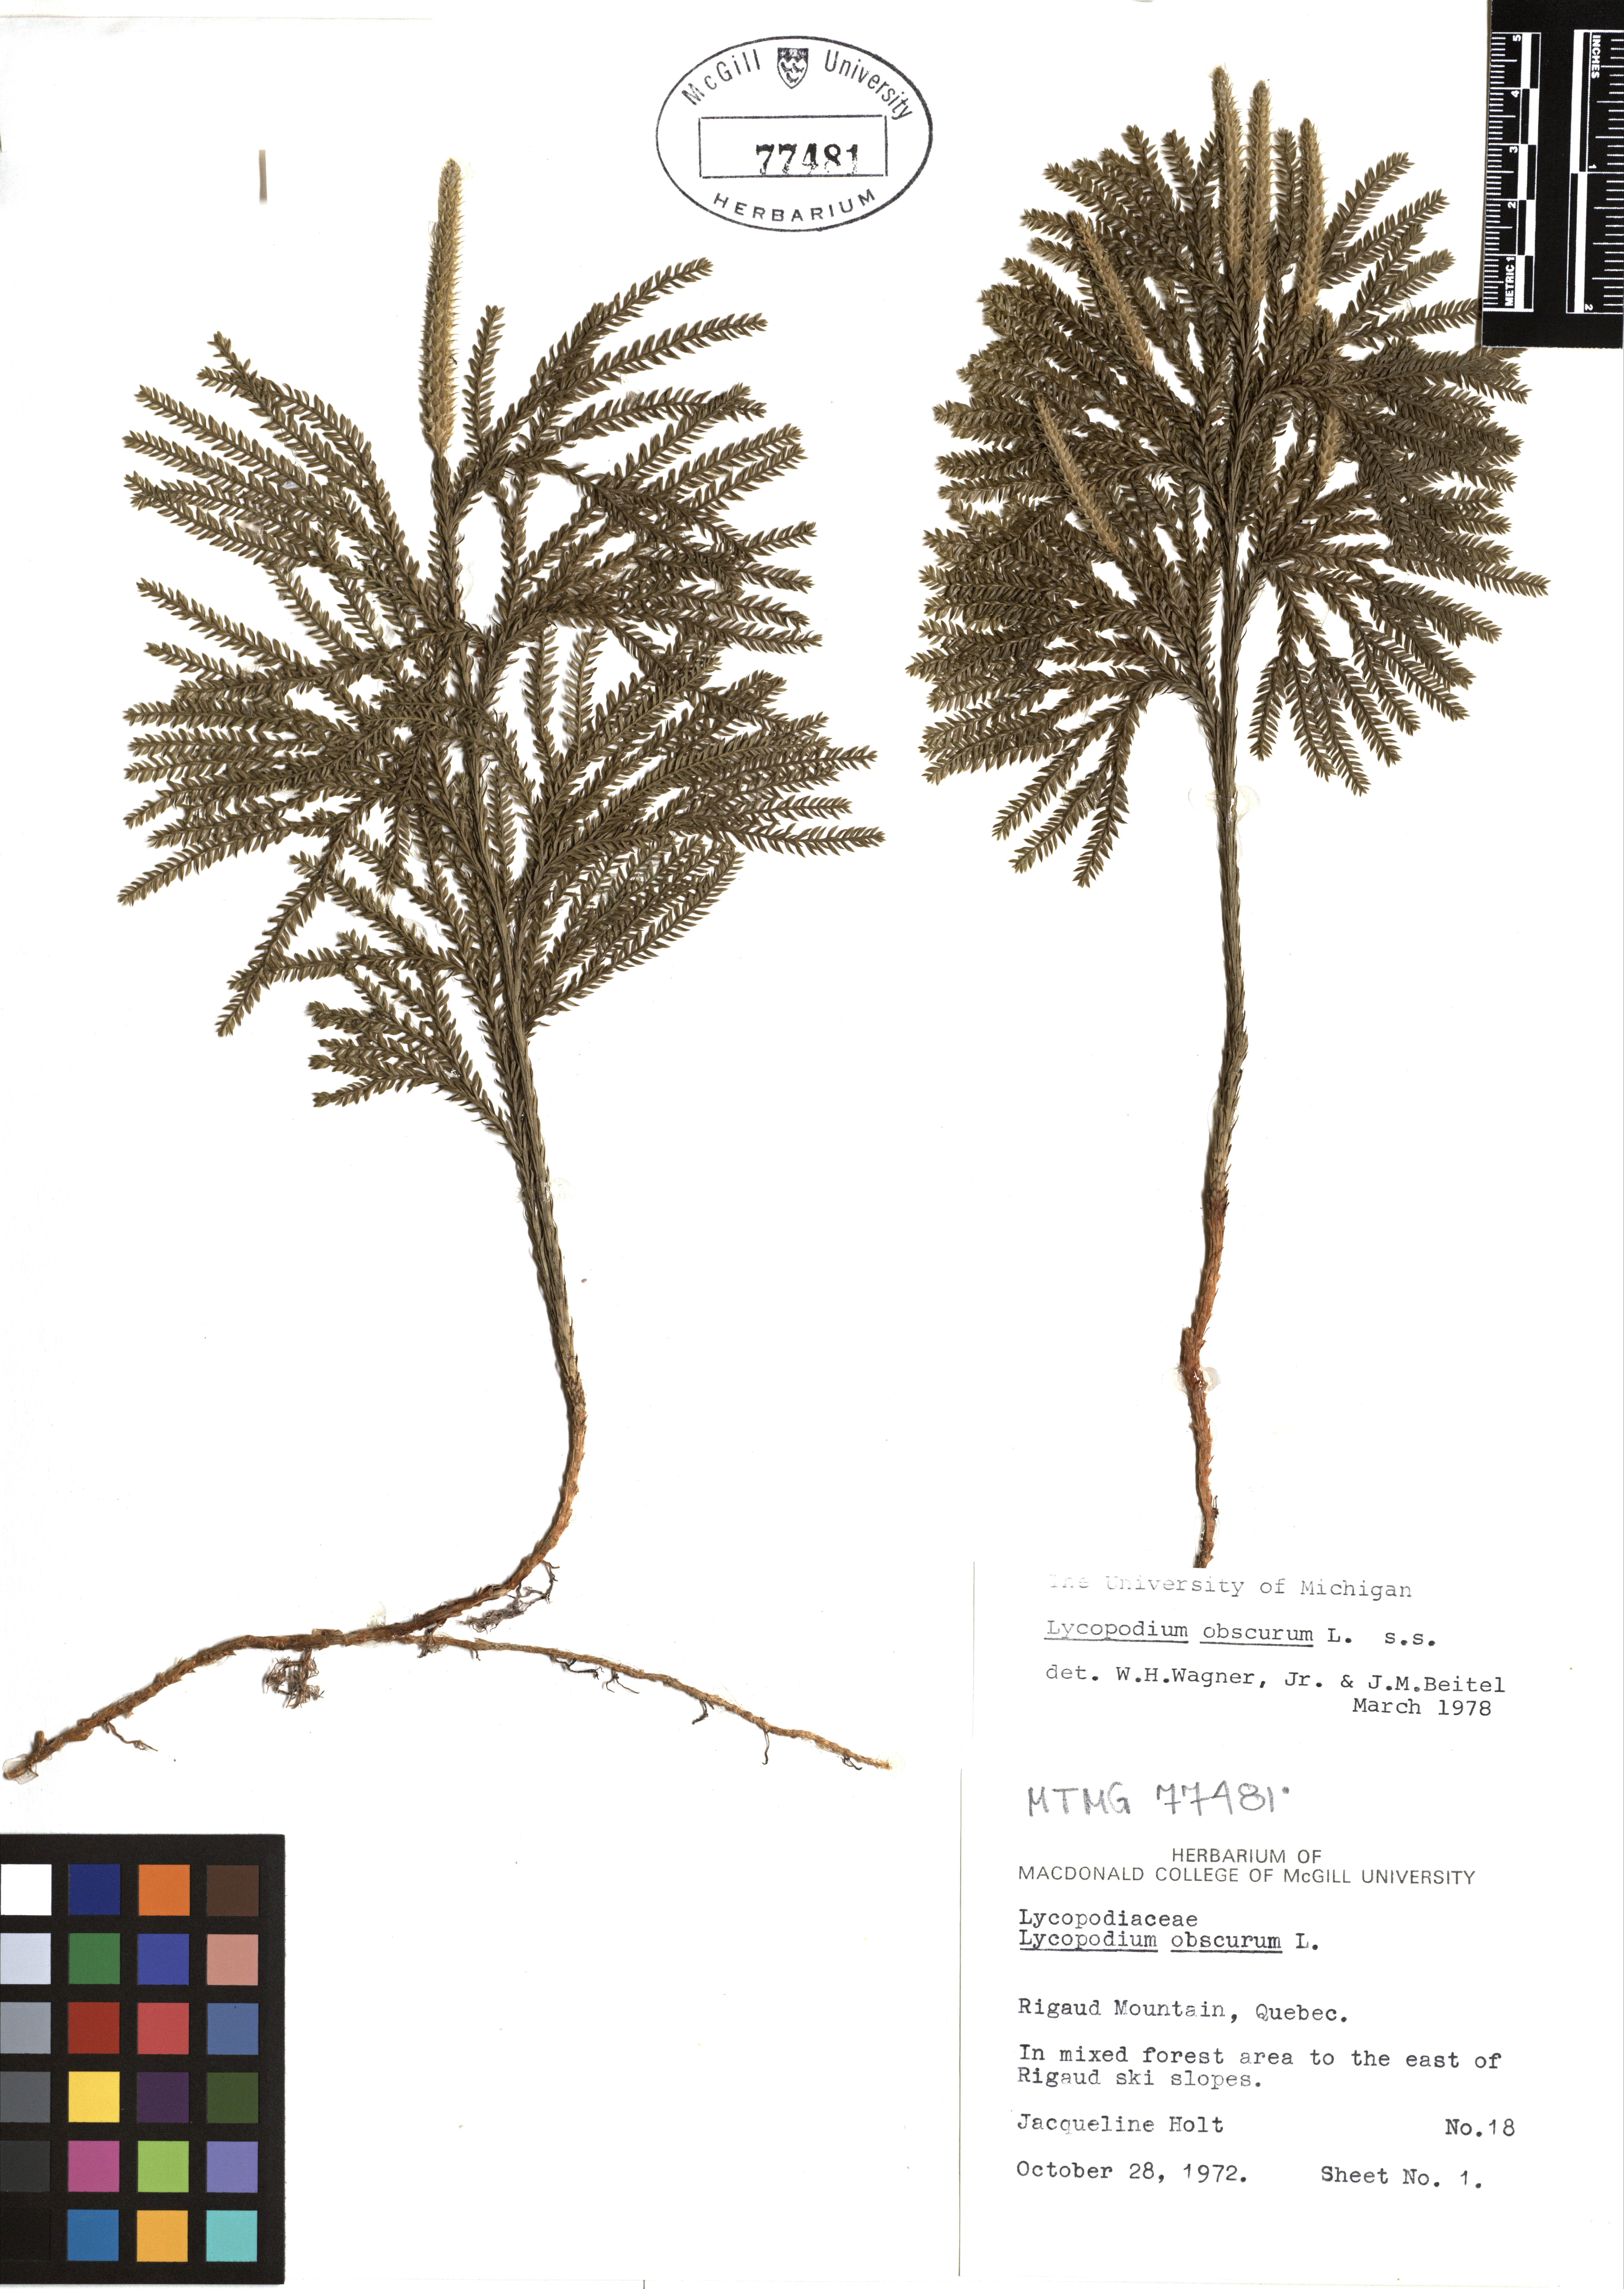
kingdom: Plantae
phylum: Tracheophyta
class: Lycopodiopsida
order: Lycopodiales
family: Lycopodiaceae
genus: Dendrolycopodium
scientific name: Dendrolycopodium obscurum
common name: Common ground-pine
